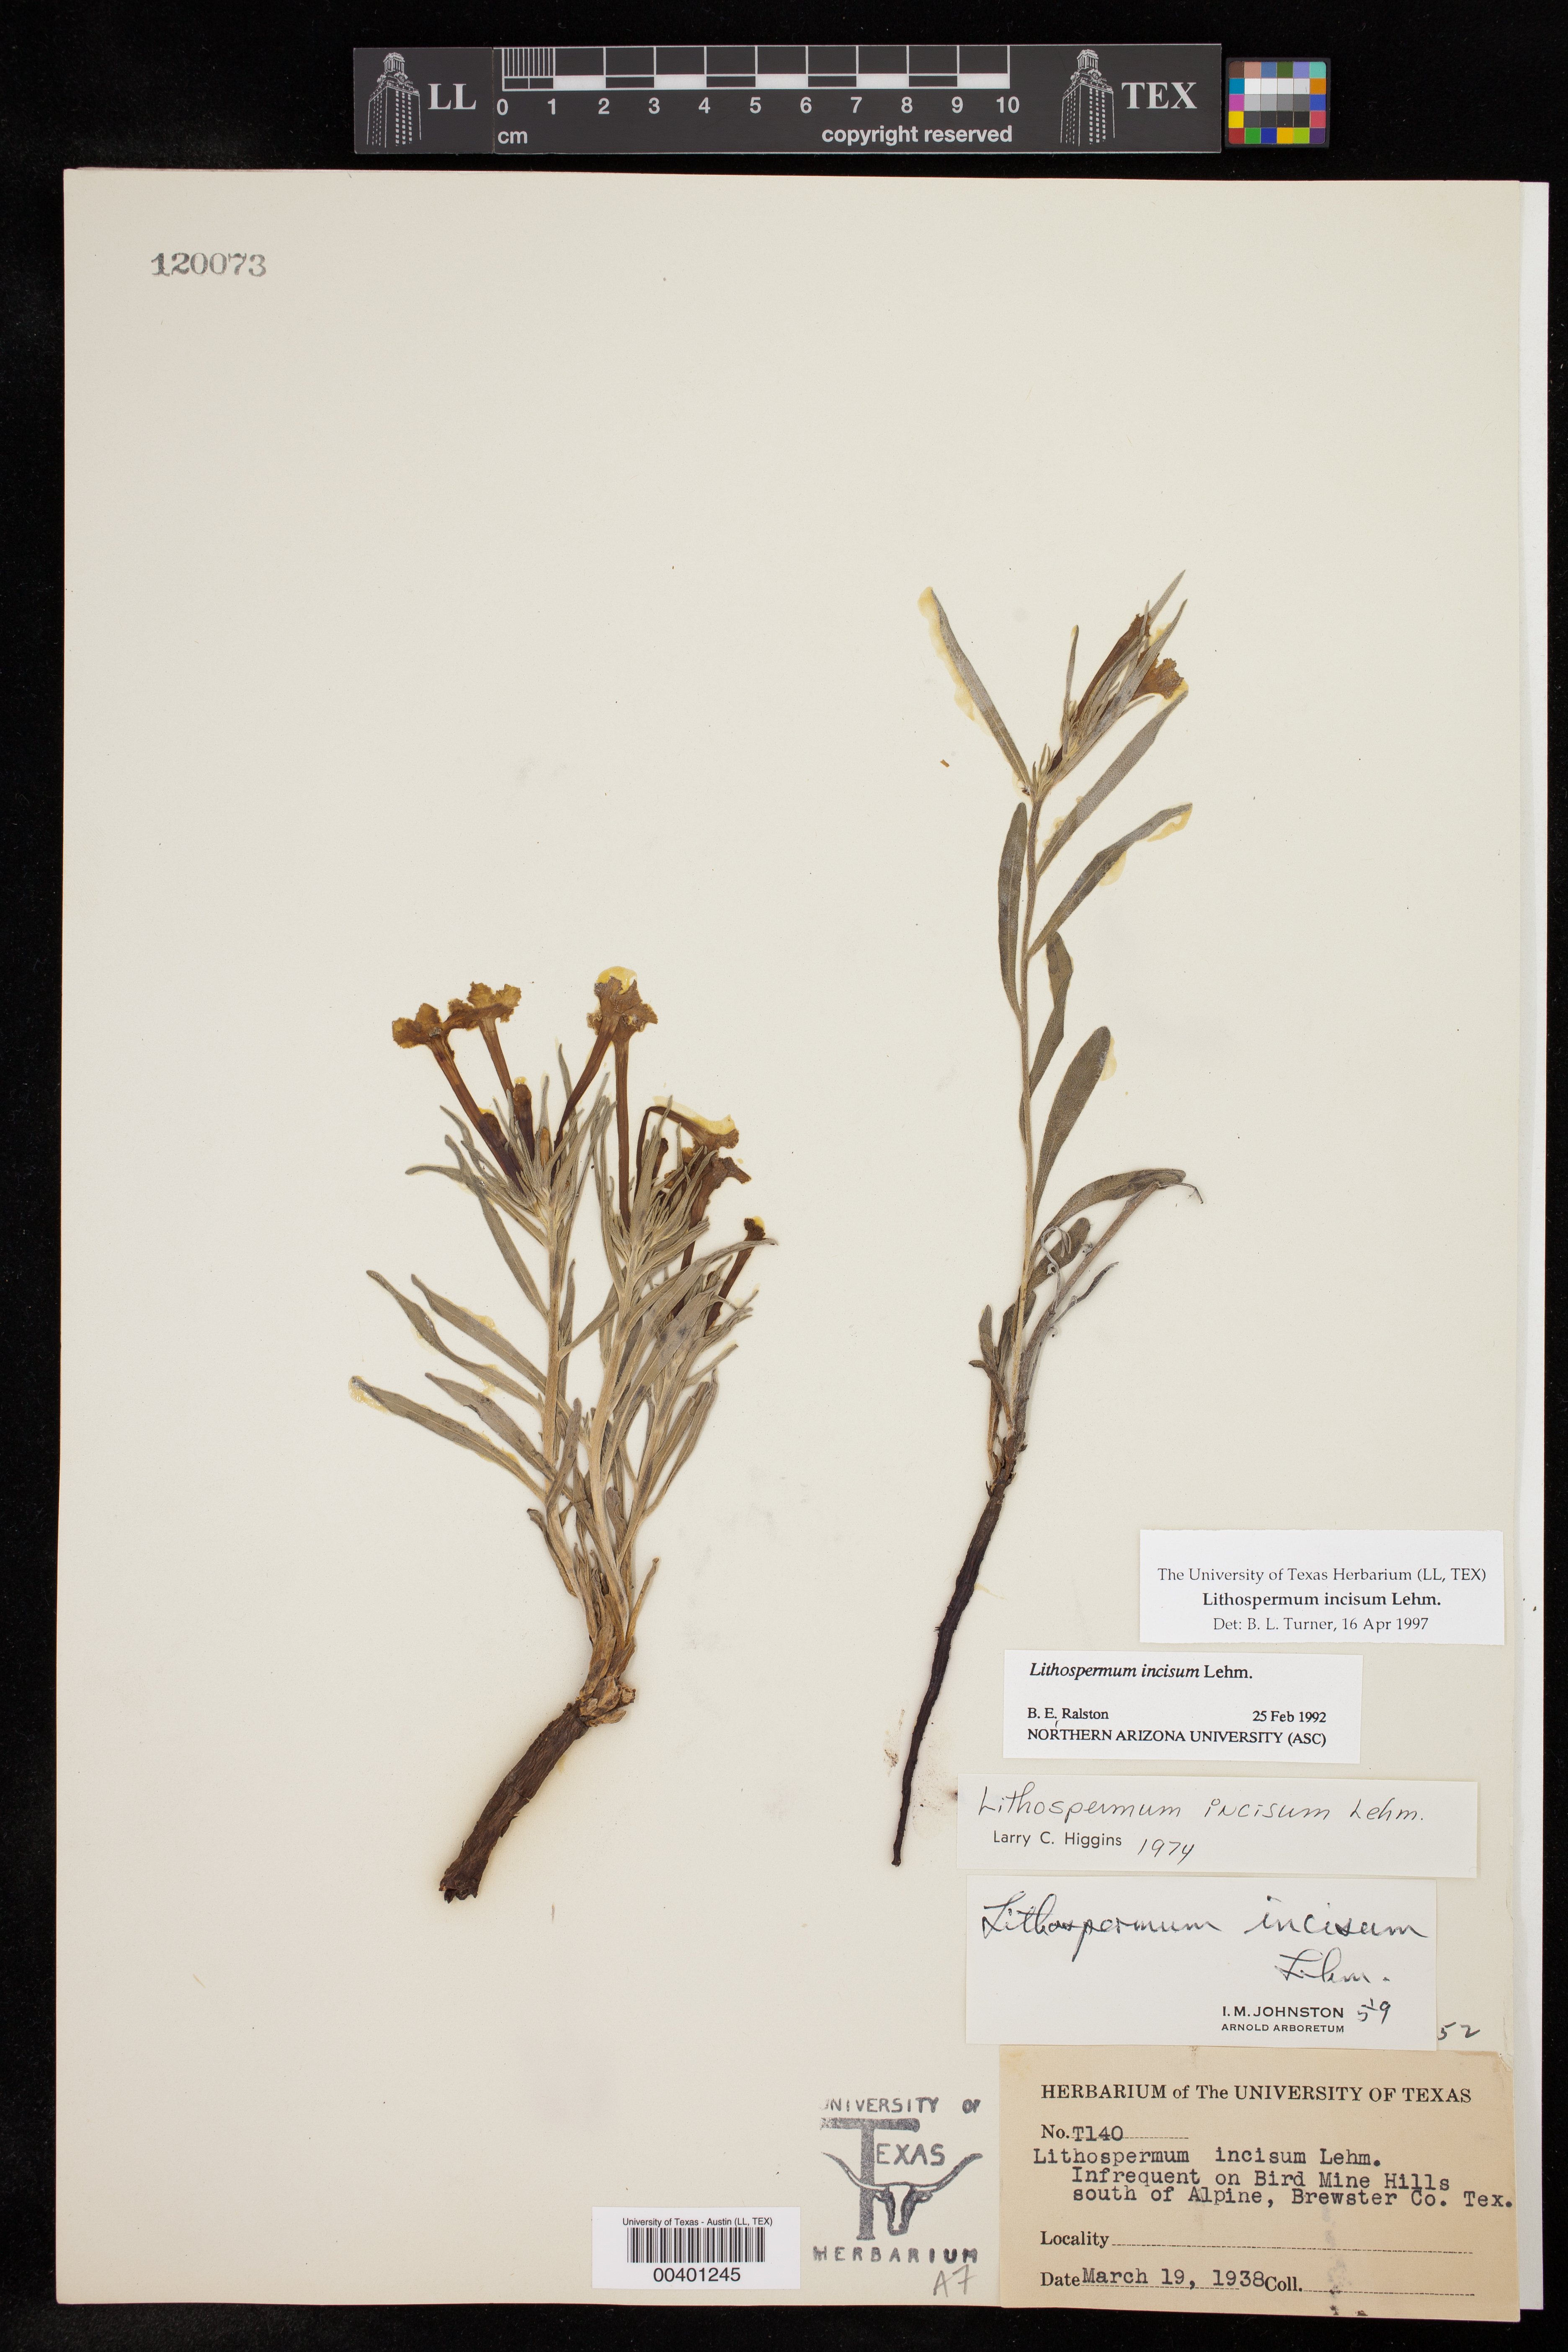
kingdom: Plantae
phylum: Tracheophyta
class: Magnoliopsida
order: Boraginales
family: Boraginaceae
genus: Lithospermum
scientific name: Lithospermum incisum
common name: Fringed gromwell
